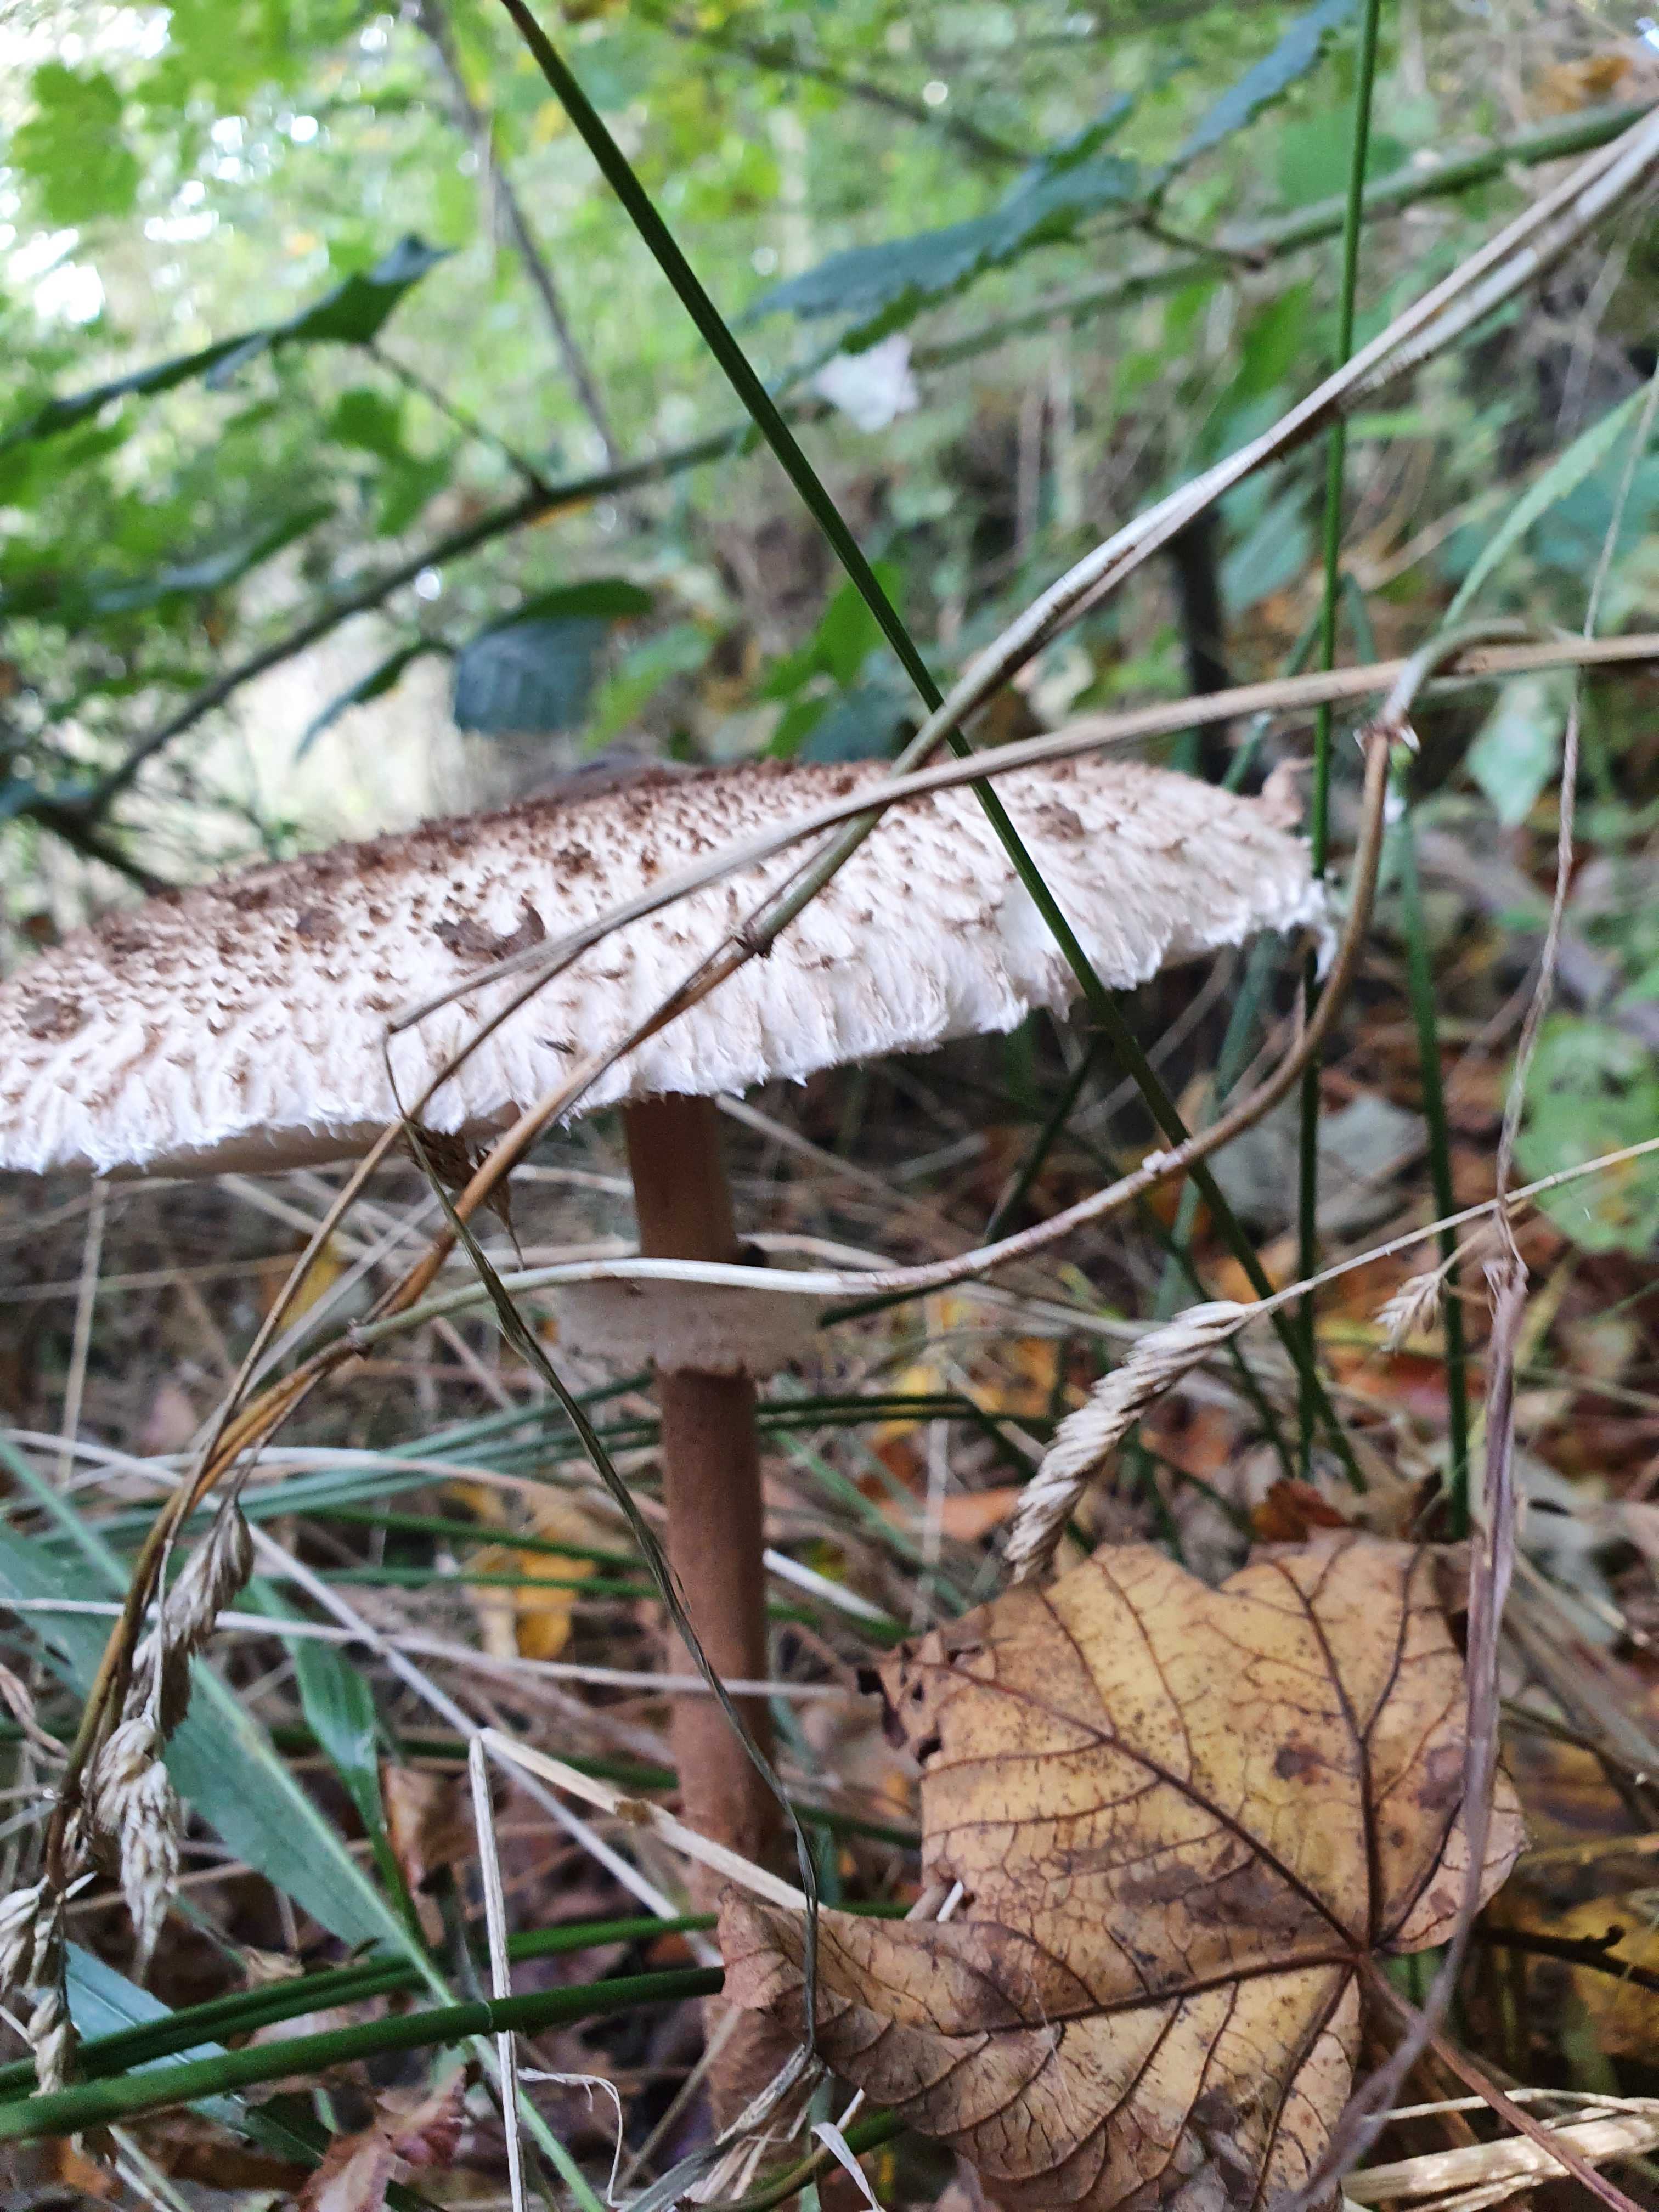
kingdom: Fungi
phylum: Basidiomycota
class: Agaricomycetes
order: Agaricales
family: Agaricaceae
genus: Macrolepiota
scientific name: Macrolepiota procera
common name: stor kæmpeparasolhat
